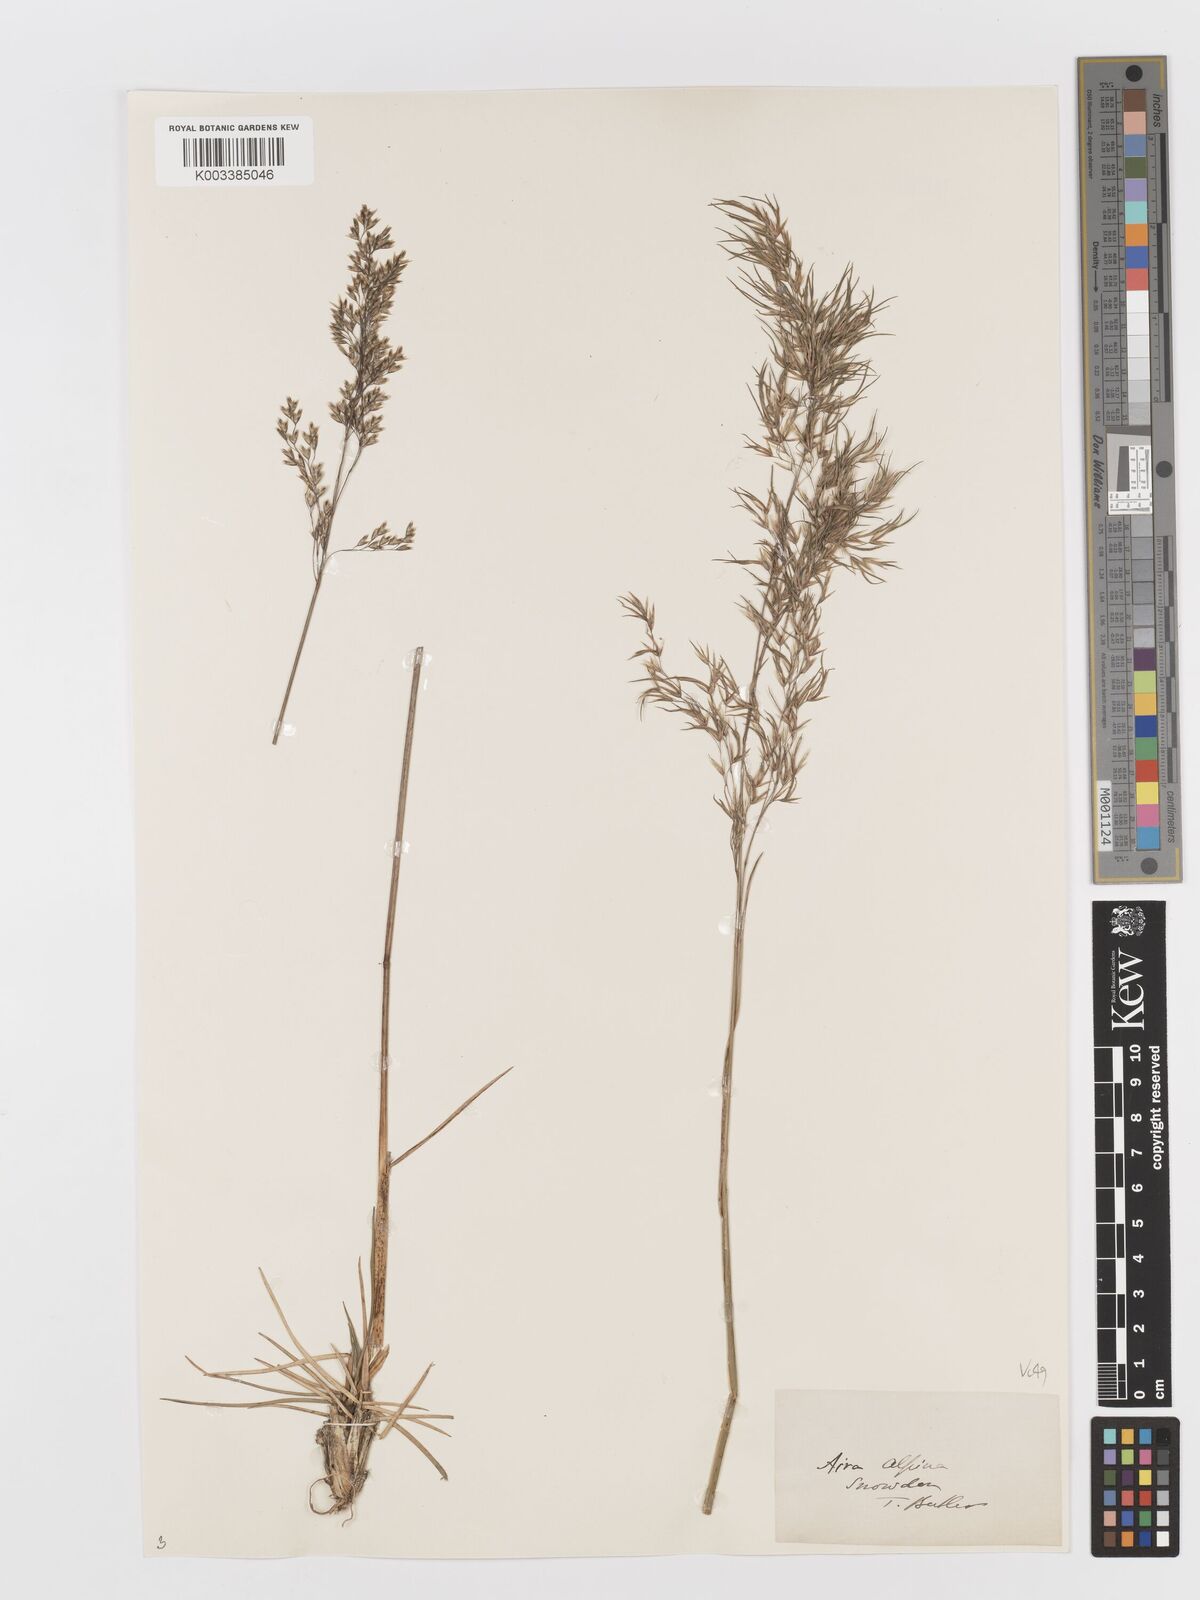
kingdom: Plantae
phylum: Tracheophyta
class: Liliopsida
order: Poales
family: Poaceae
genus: Deschampsia
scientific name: Deschampsia cespitosa
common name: Tufted hair-grass
